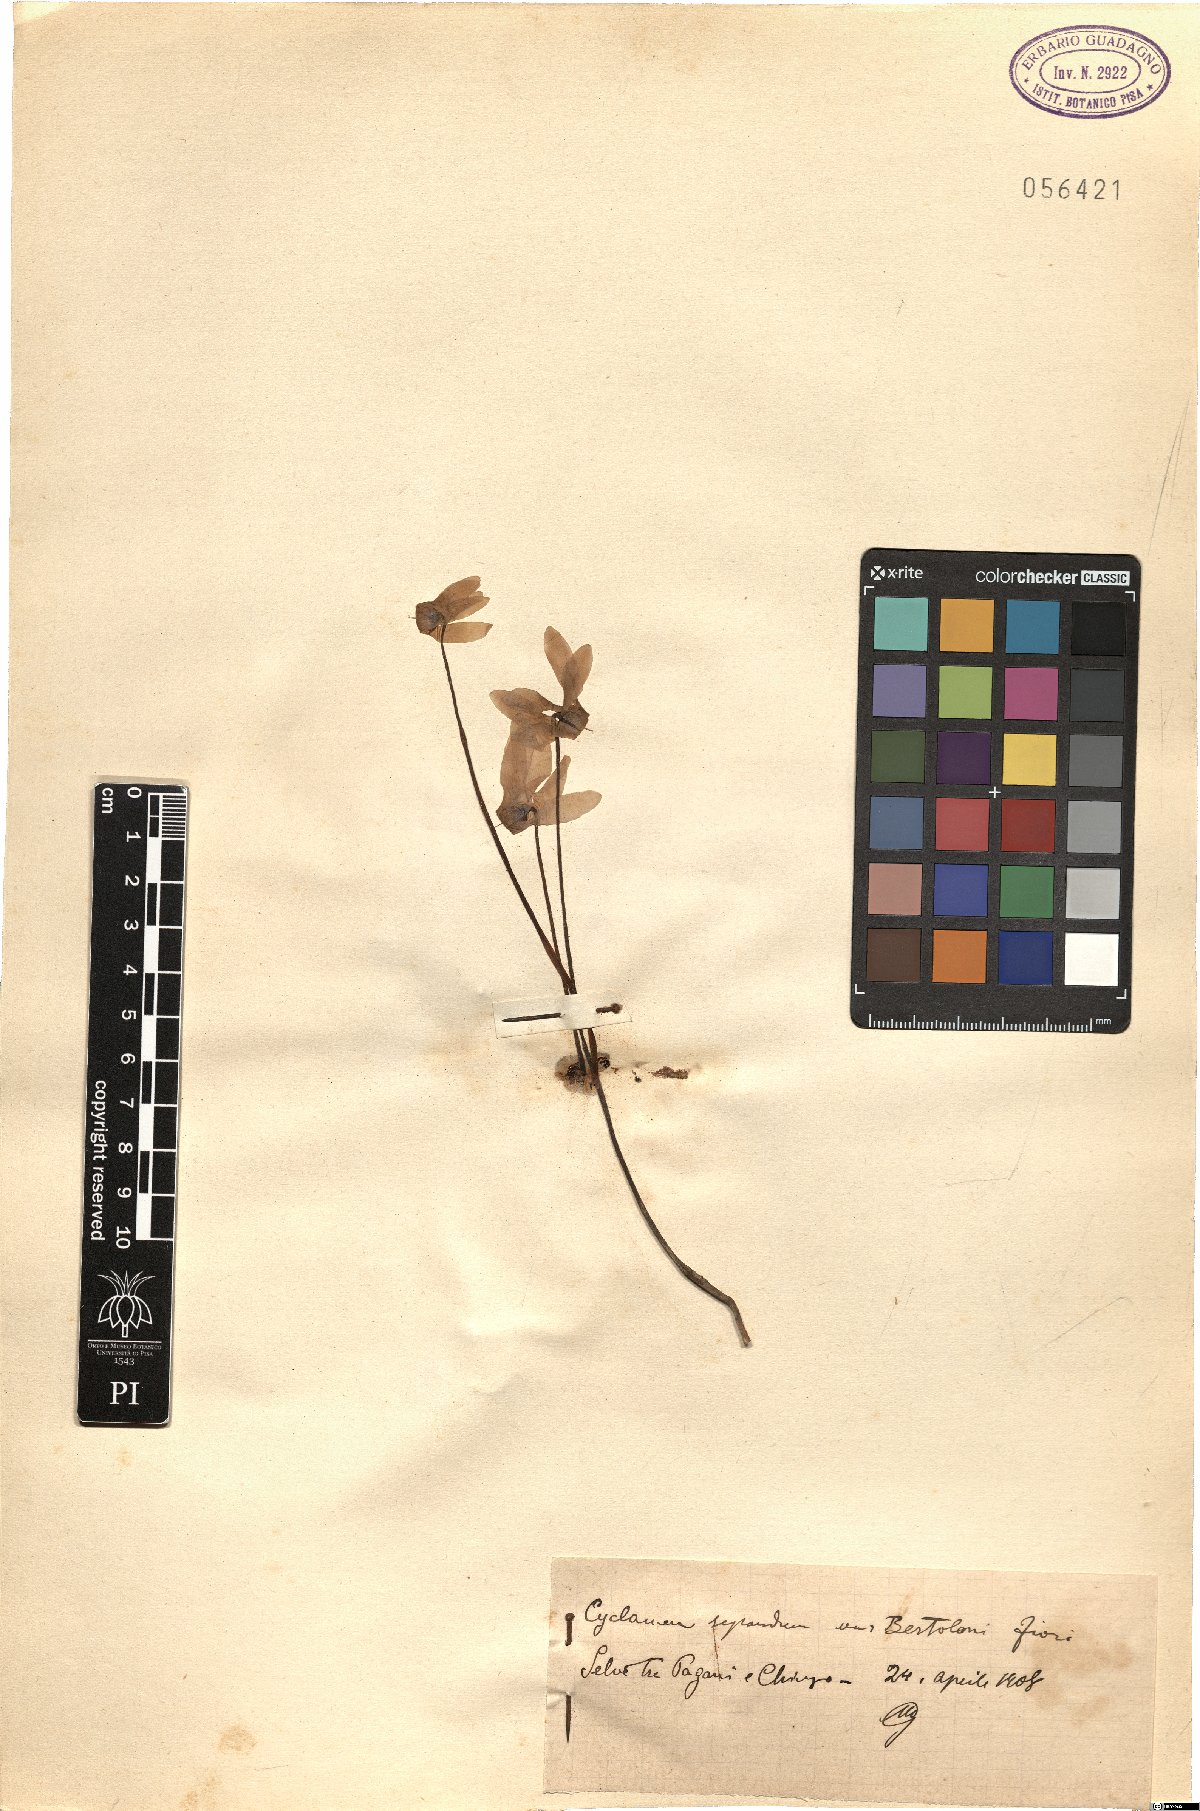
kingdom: Plantae
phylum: Tracheophyta
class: Magnoliopsida
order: Ericales
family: Primulaceae
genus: Cyclamen
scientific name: Cyclamen repandum
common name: Spring sowbread
